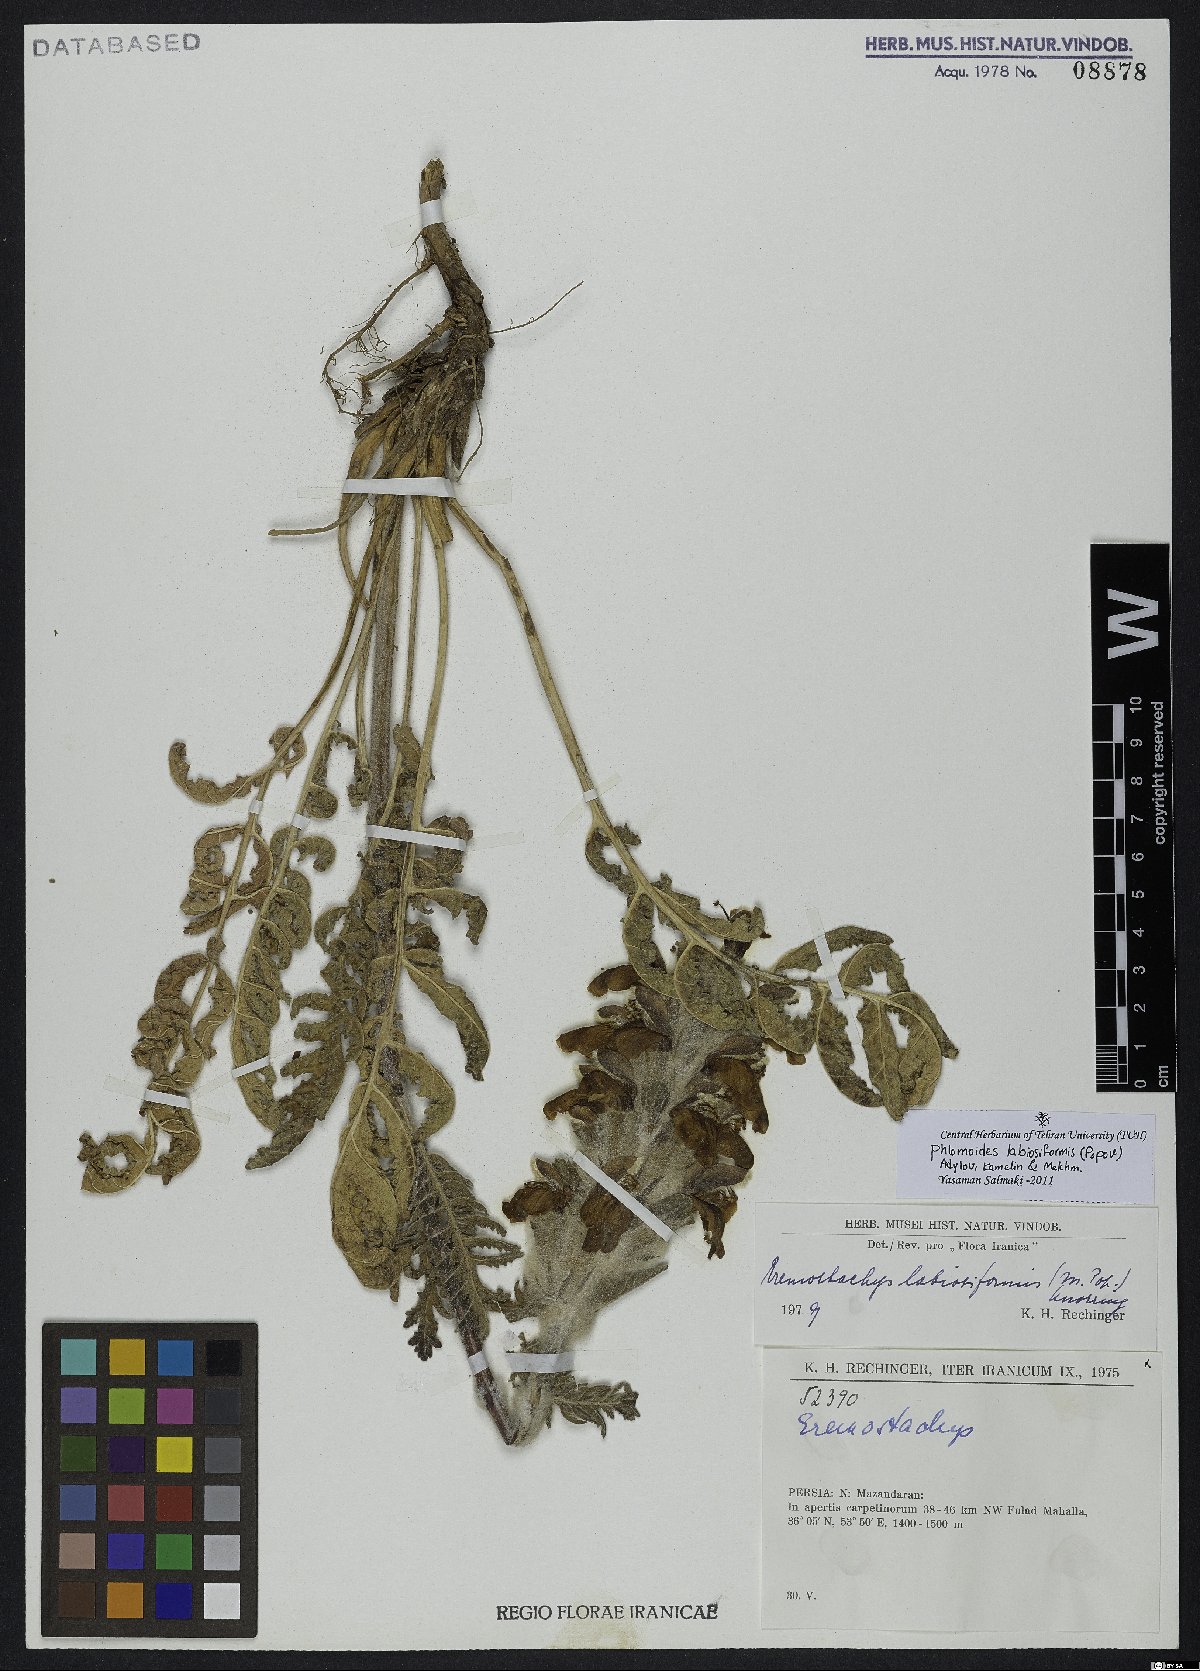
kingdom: Plantae
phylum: Tracheophyta
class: Magnoliopsida
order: Lamiales
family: Lamiaceae
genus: Phlomoides
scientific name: Phlomoides labiosiformis
